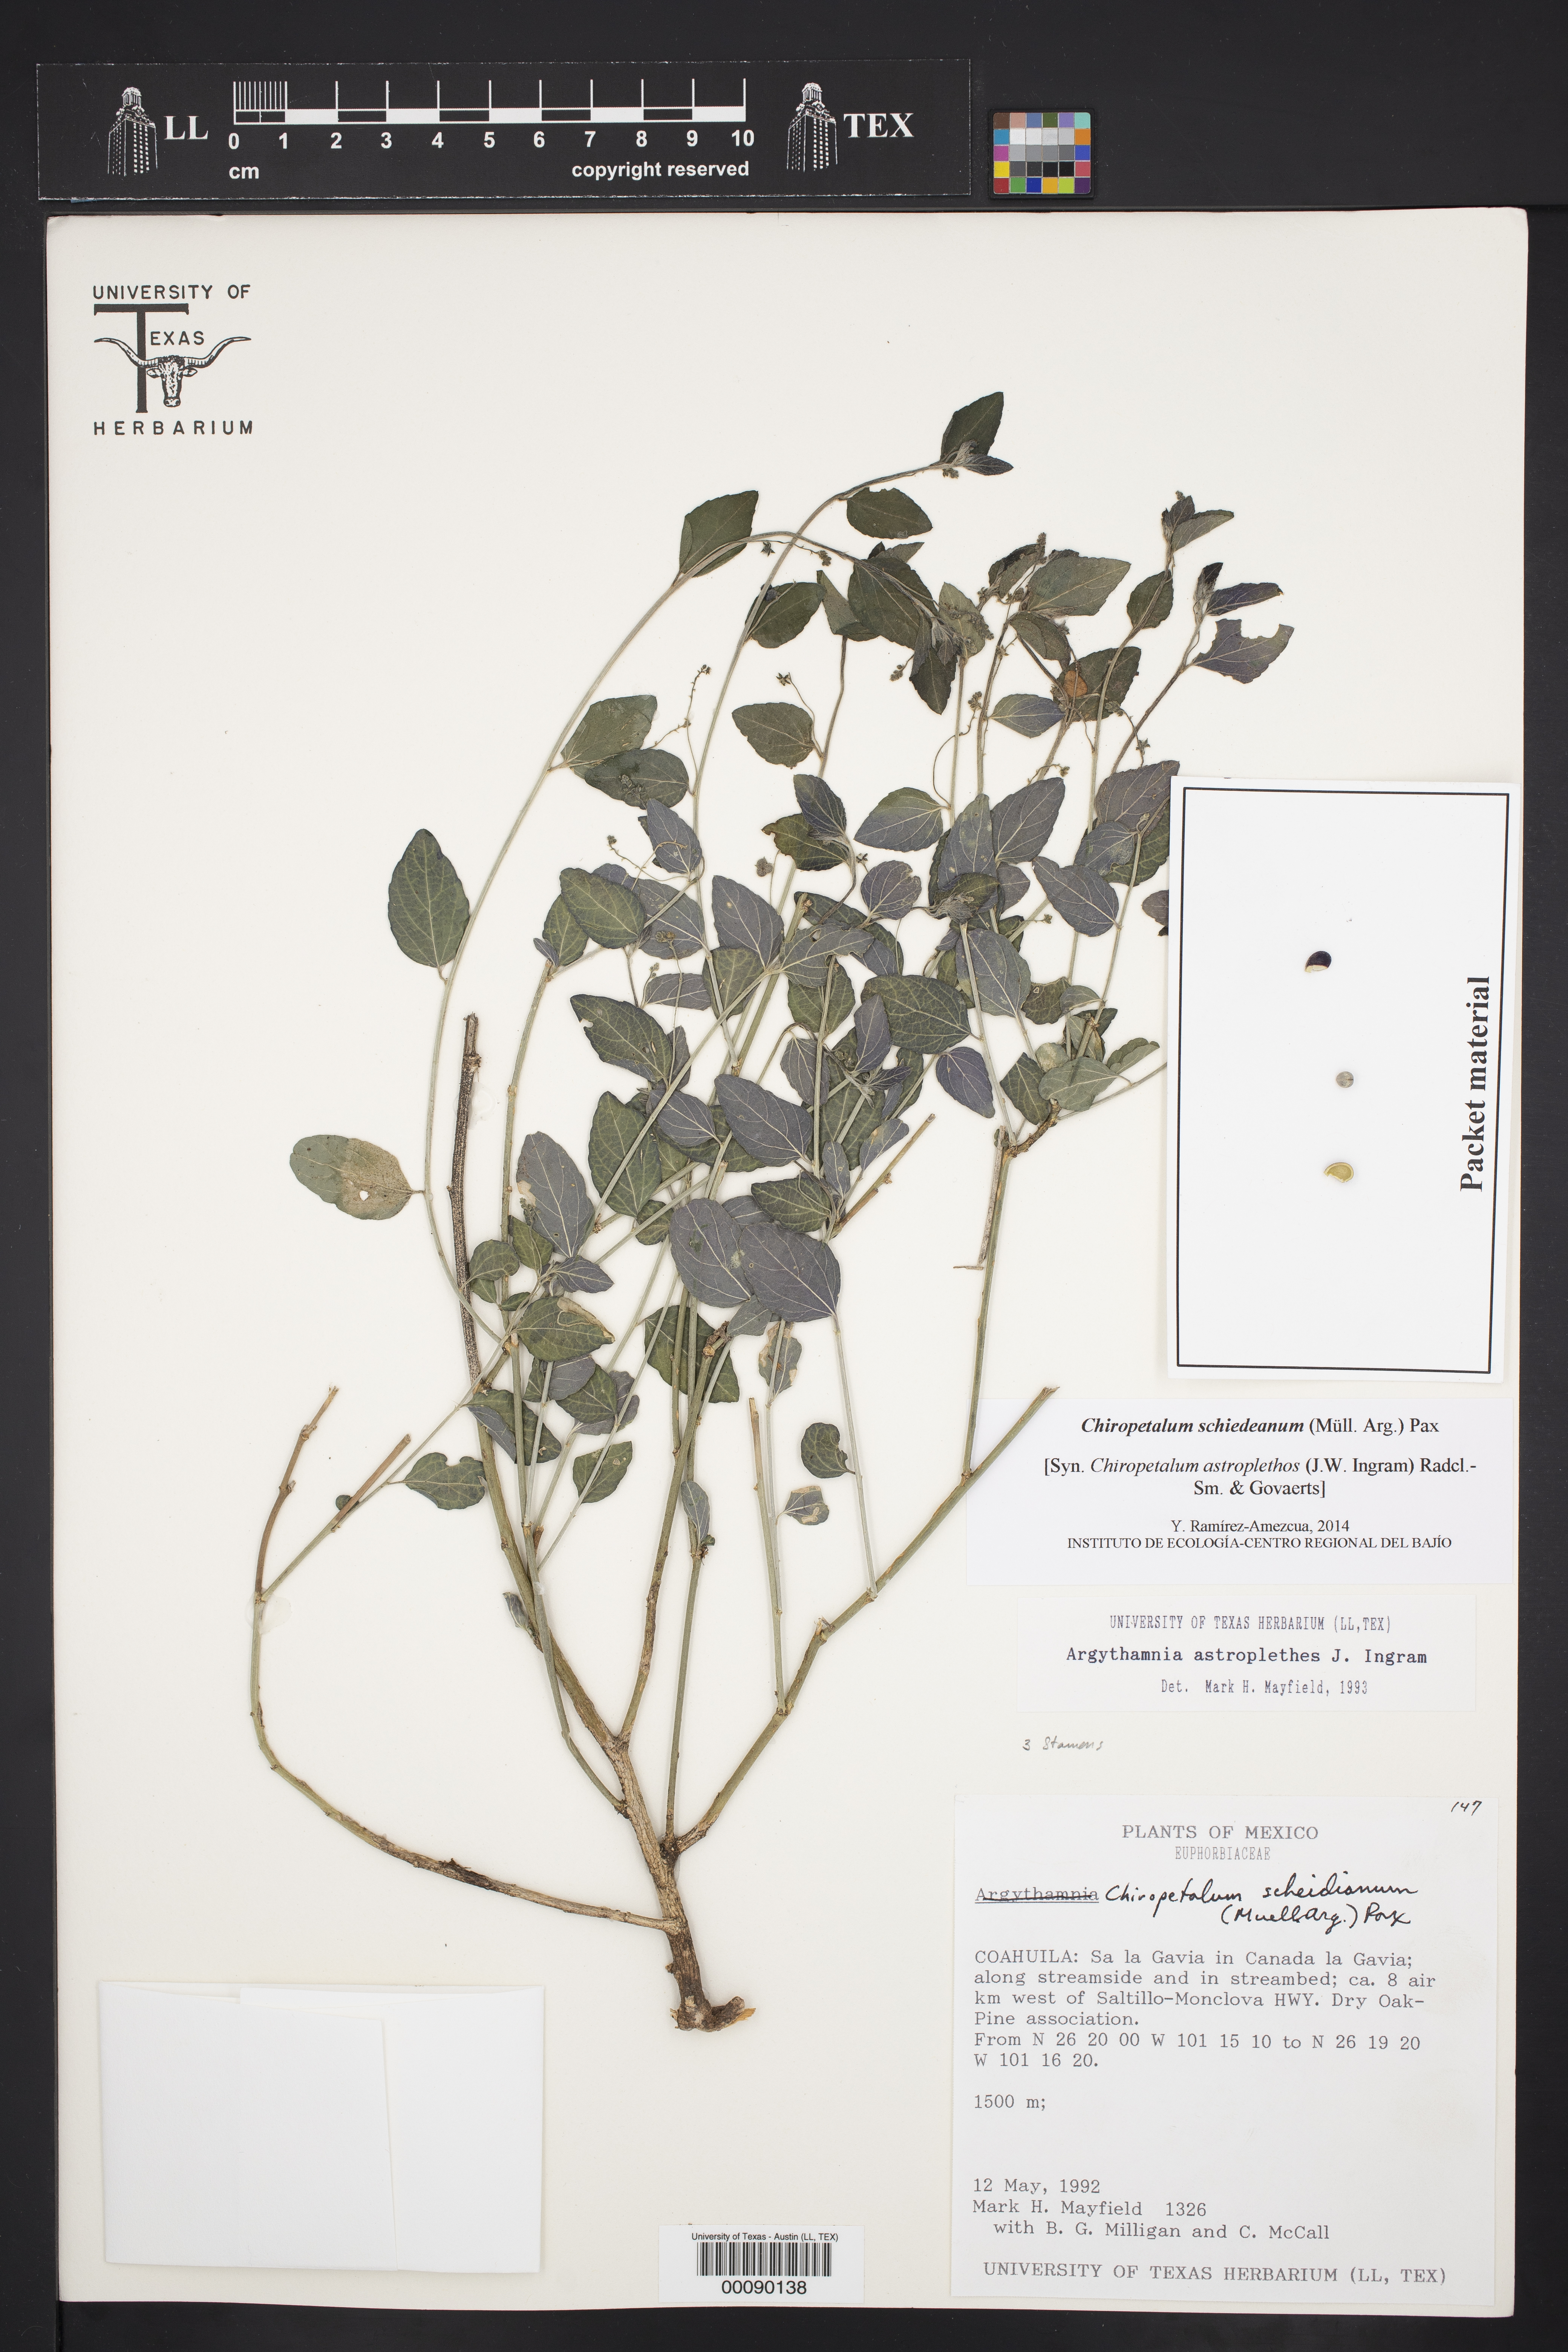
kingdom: Plantae
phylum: Tracheophyta
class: Magnoliopsida
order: Malpighiales
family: Euphorbiaceae
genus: Chiropetalum
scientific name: Chiropetalum astroplethes
